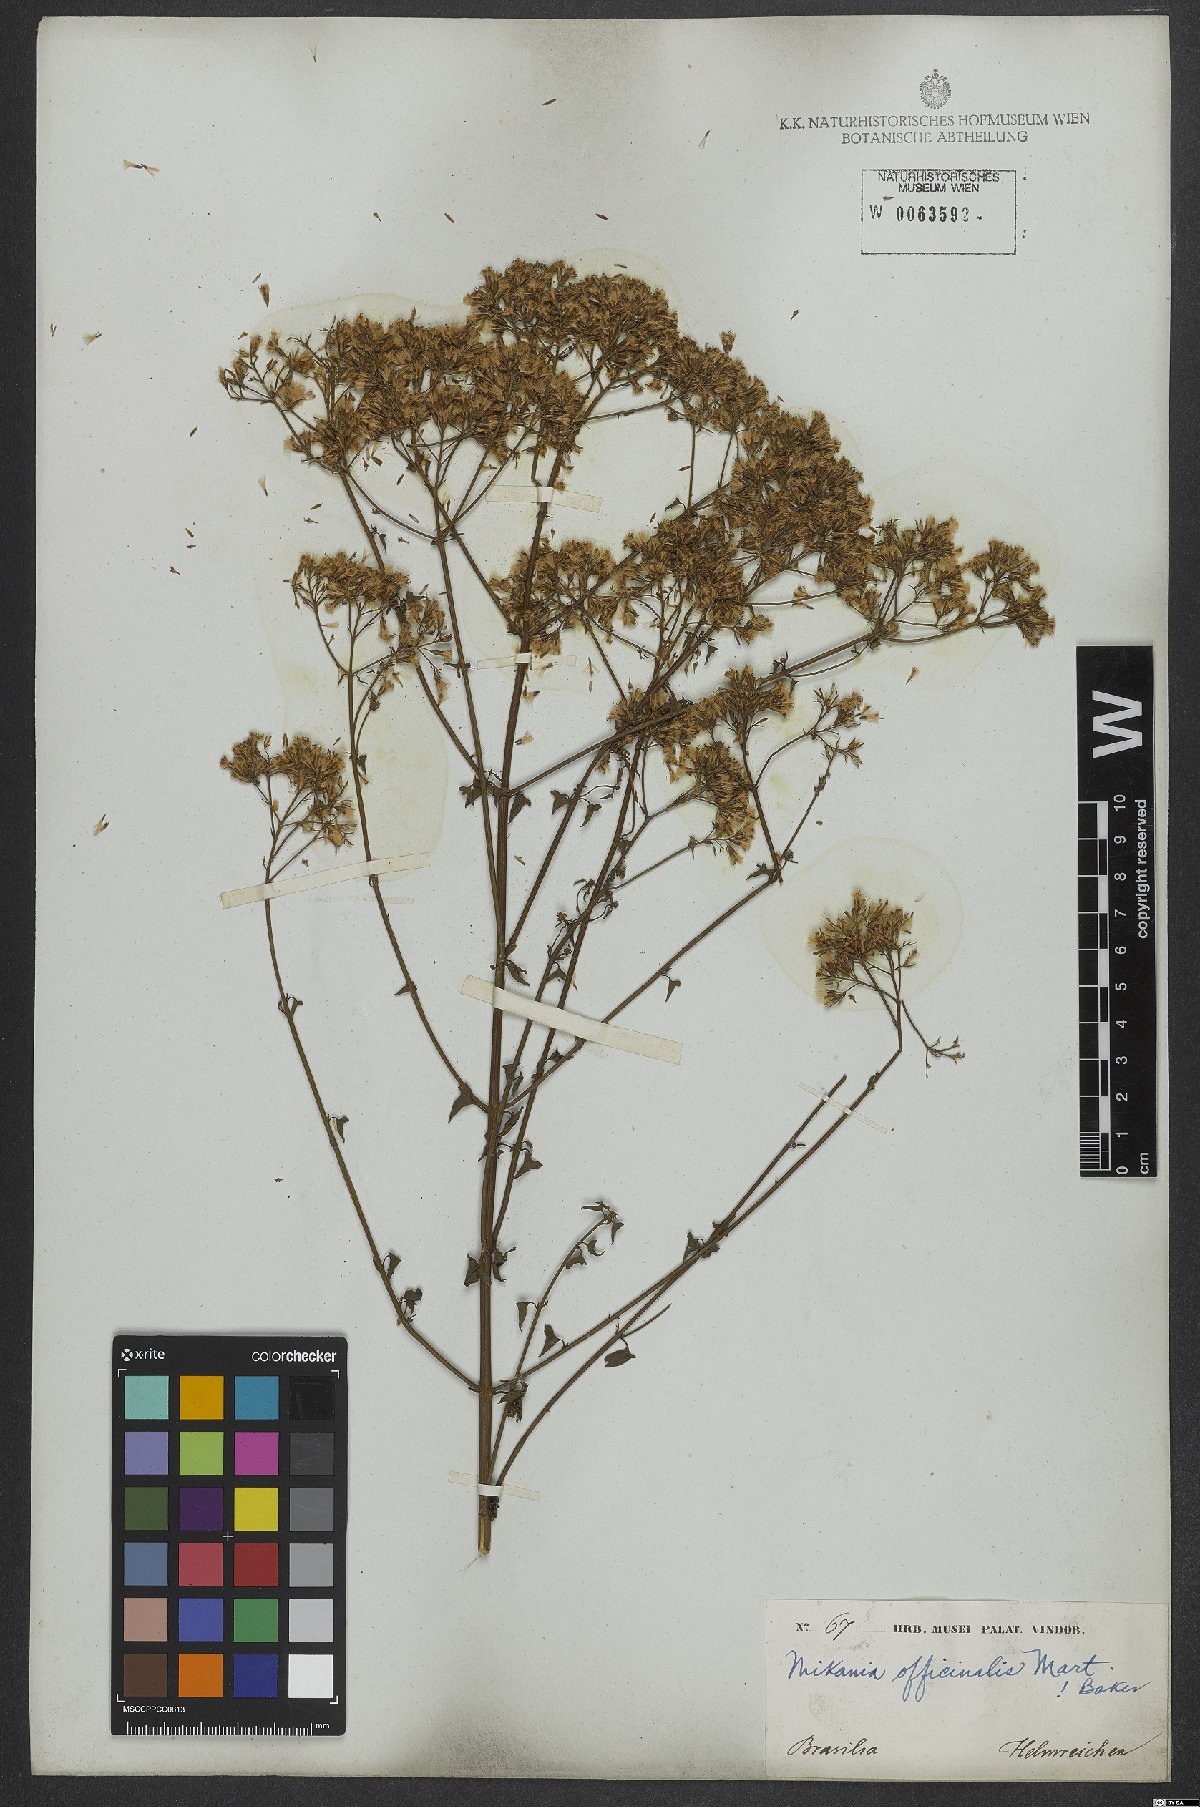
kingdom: Plantae
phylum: Tracheophyta
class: Magnoliopsida
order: Asterales
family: Asteraceae
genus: Mikania
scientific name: Mikania officinalis
